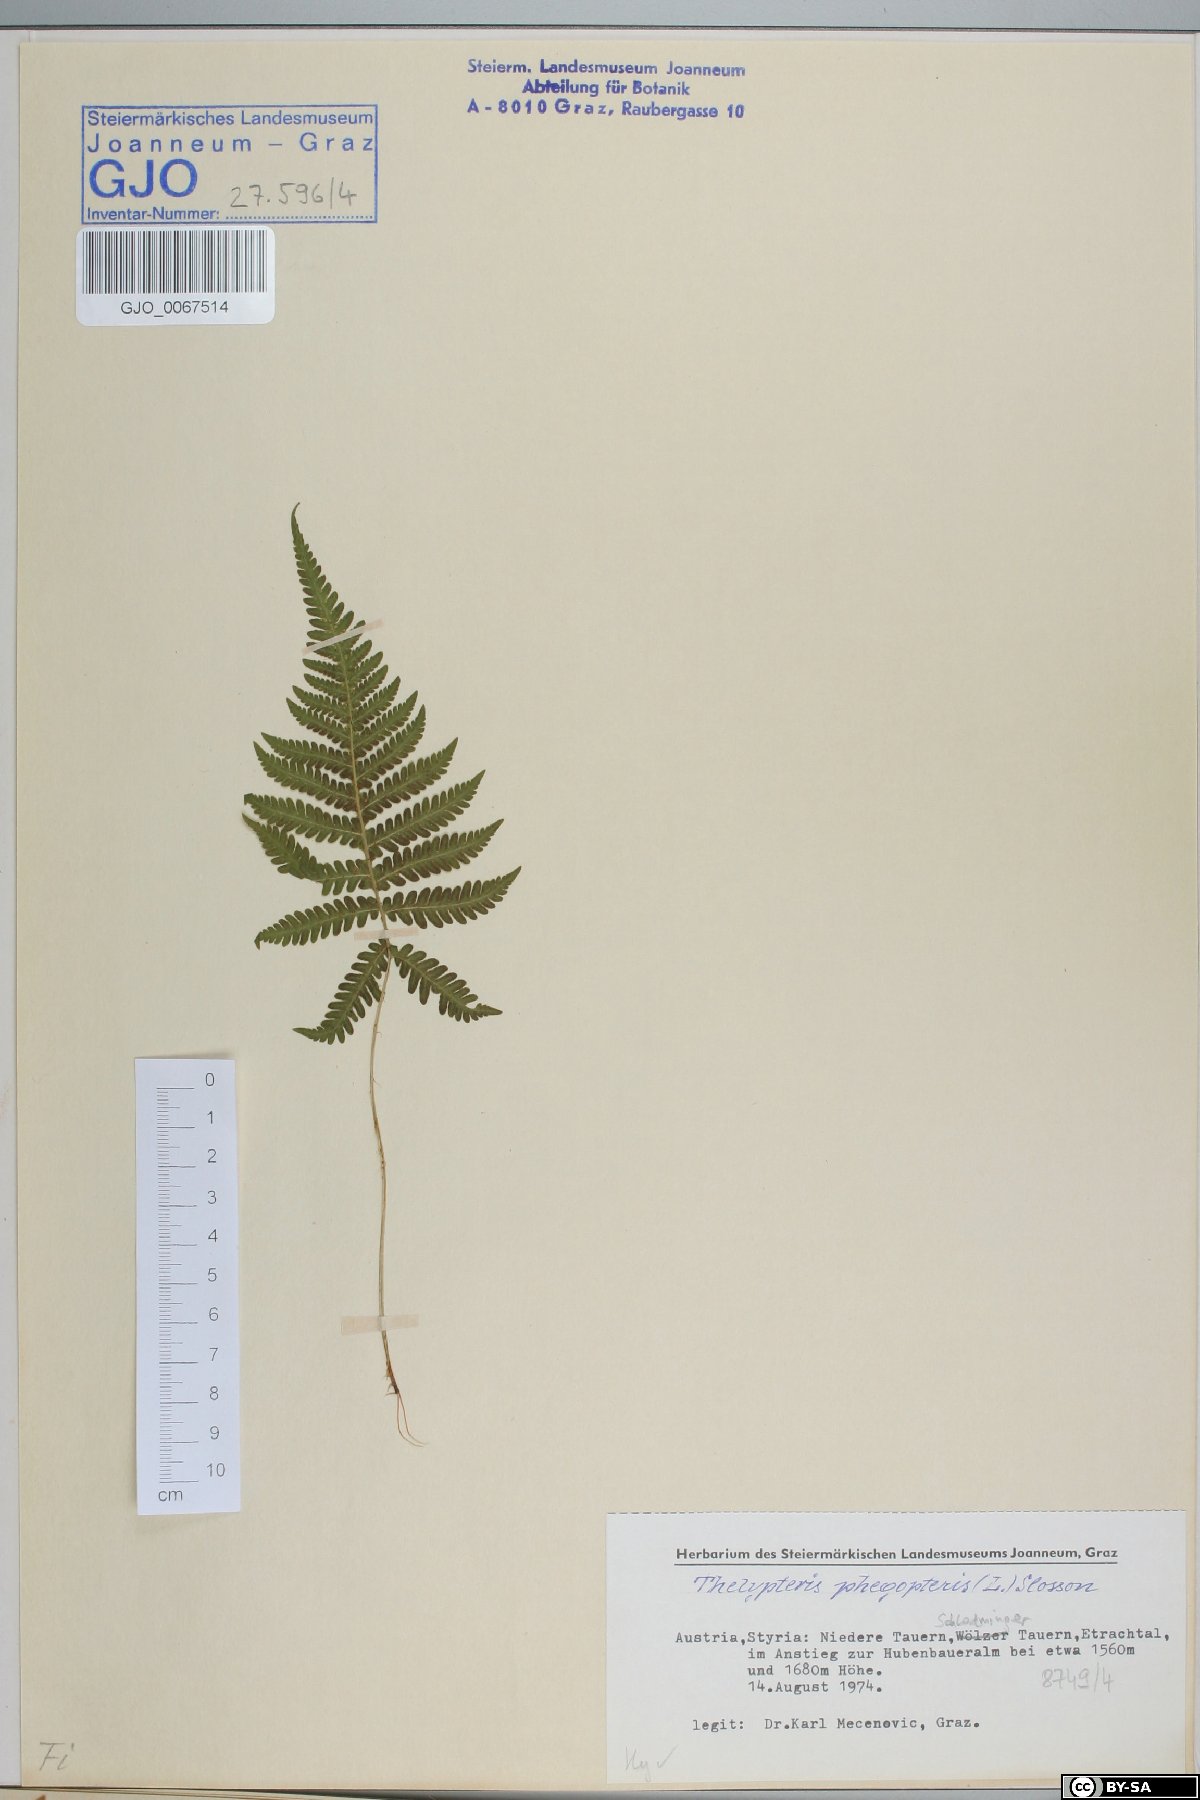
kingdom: Plantae
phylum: Tracheophyta
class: Polypodiopsida
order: Polypodiales
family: Thelypteridaceae
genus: Phegopteris
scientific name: Phegopteris connectilis
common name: Beech fern
